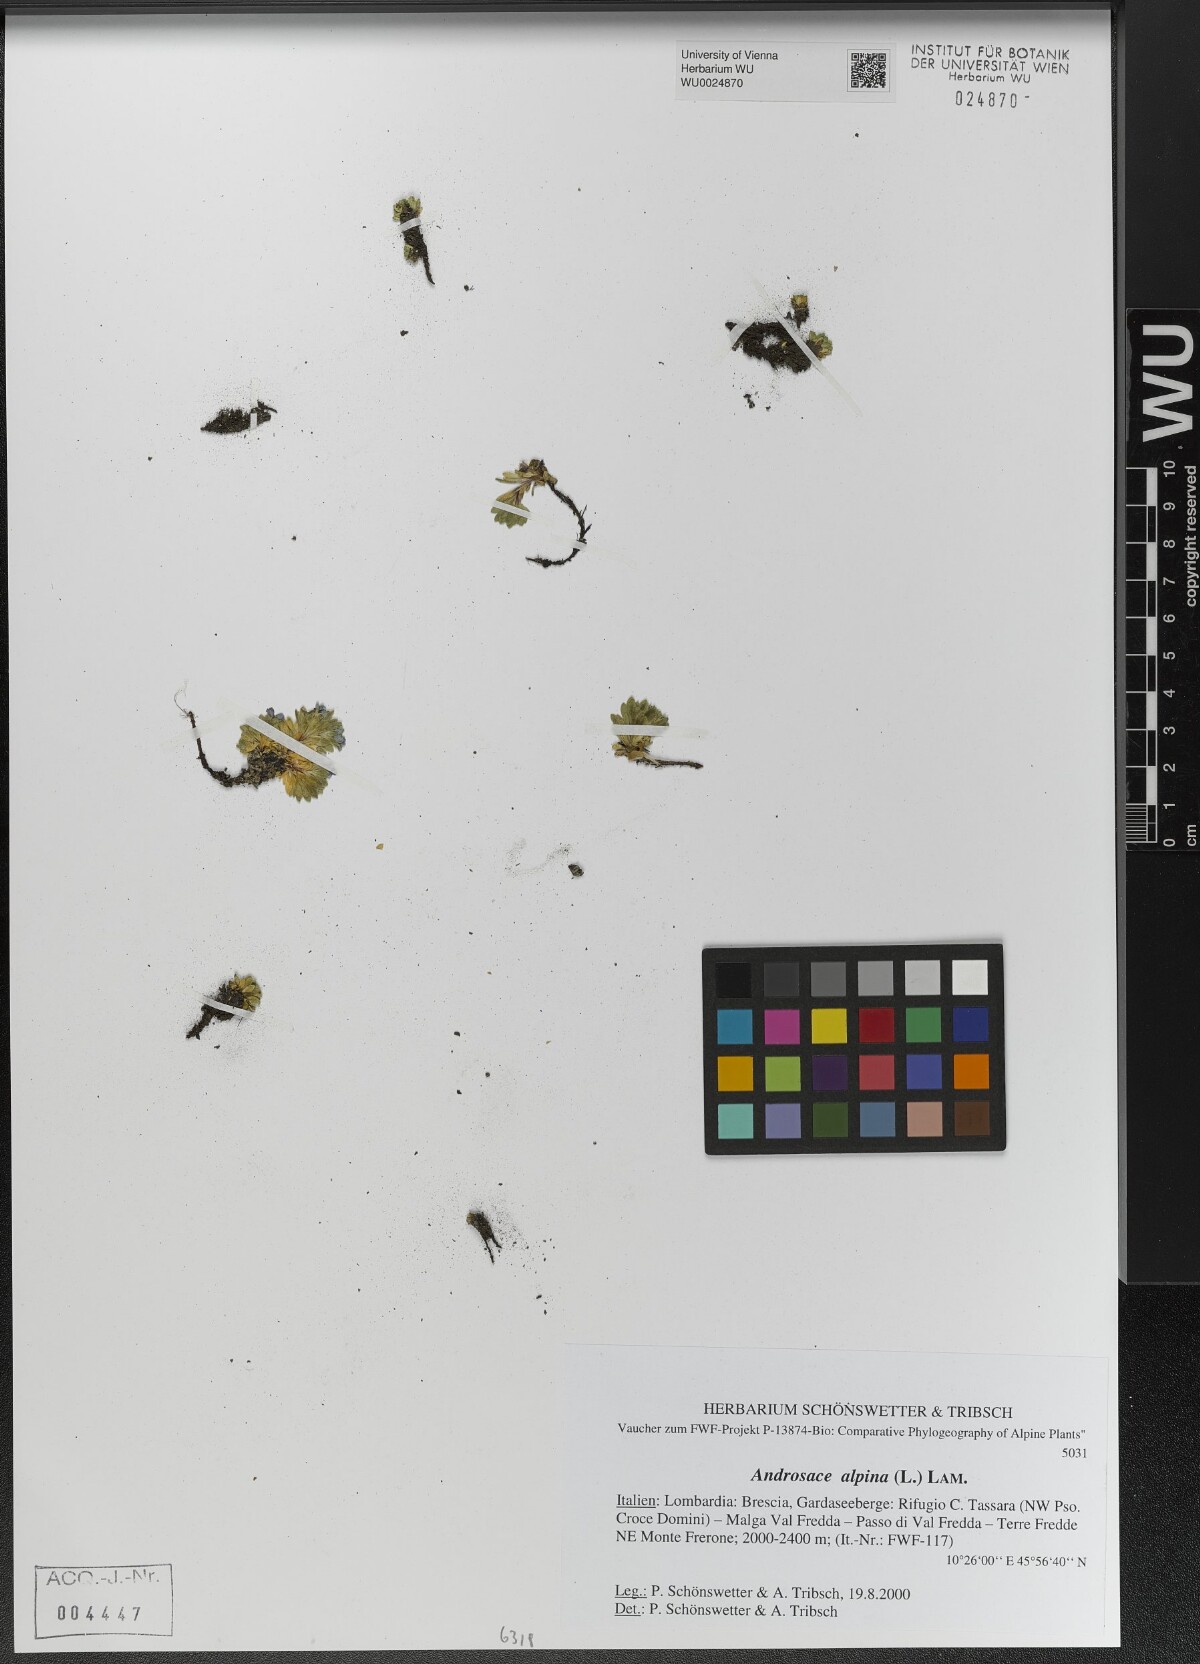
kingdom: Plantae
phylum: Tracheophyta
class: Magnoliopsida
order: Ericales
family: Primulaceae
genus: Androsace
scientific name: Androsace alpina
